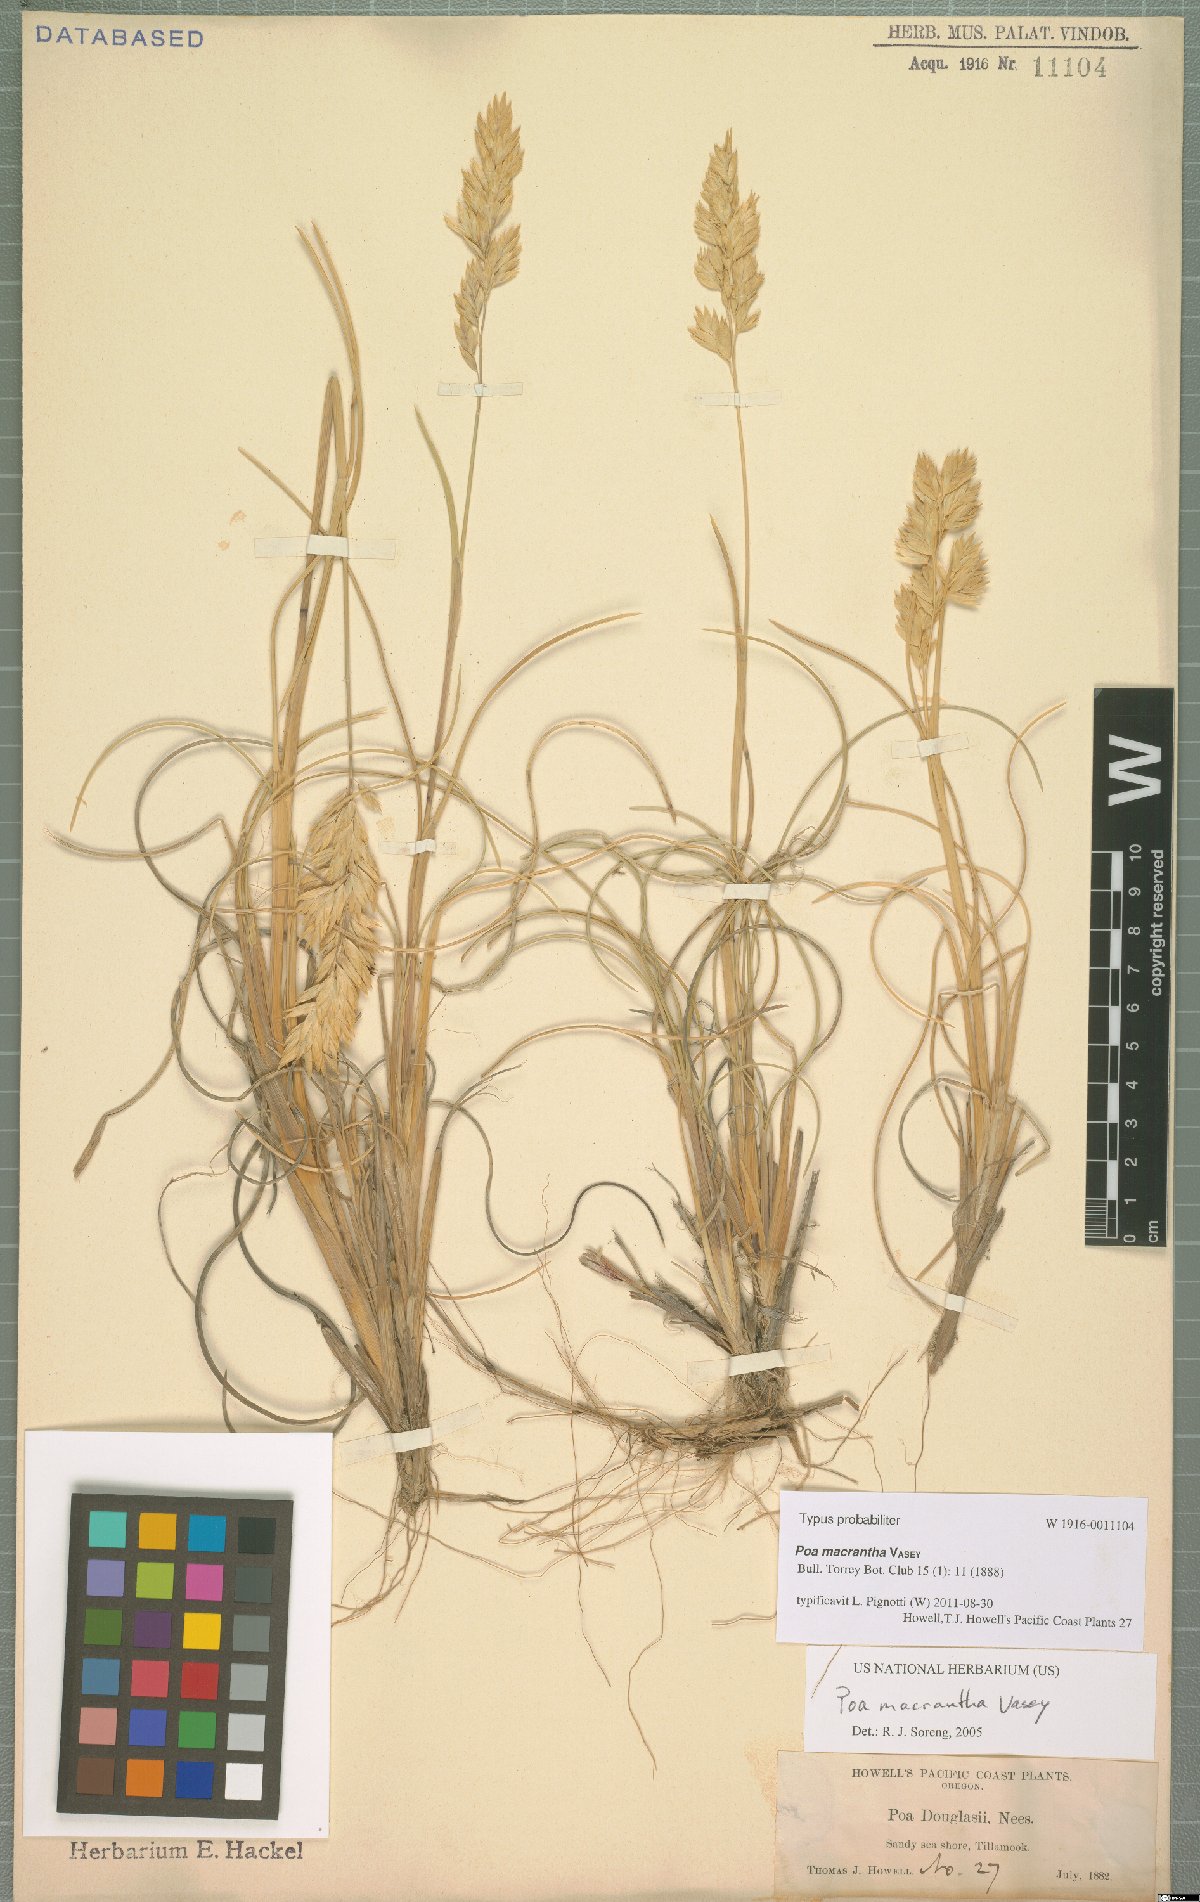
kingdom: Plantae
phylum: Tracheophyta
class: Liliopsida
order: Poales
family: Poaceae
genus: Poa
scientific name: Poa macrantha
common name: Dune bluegrass
